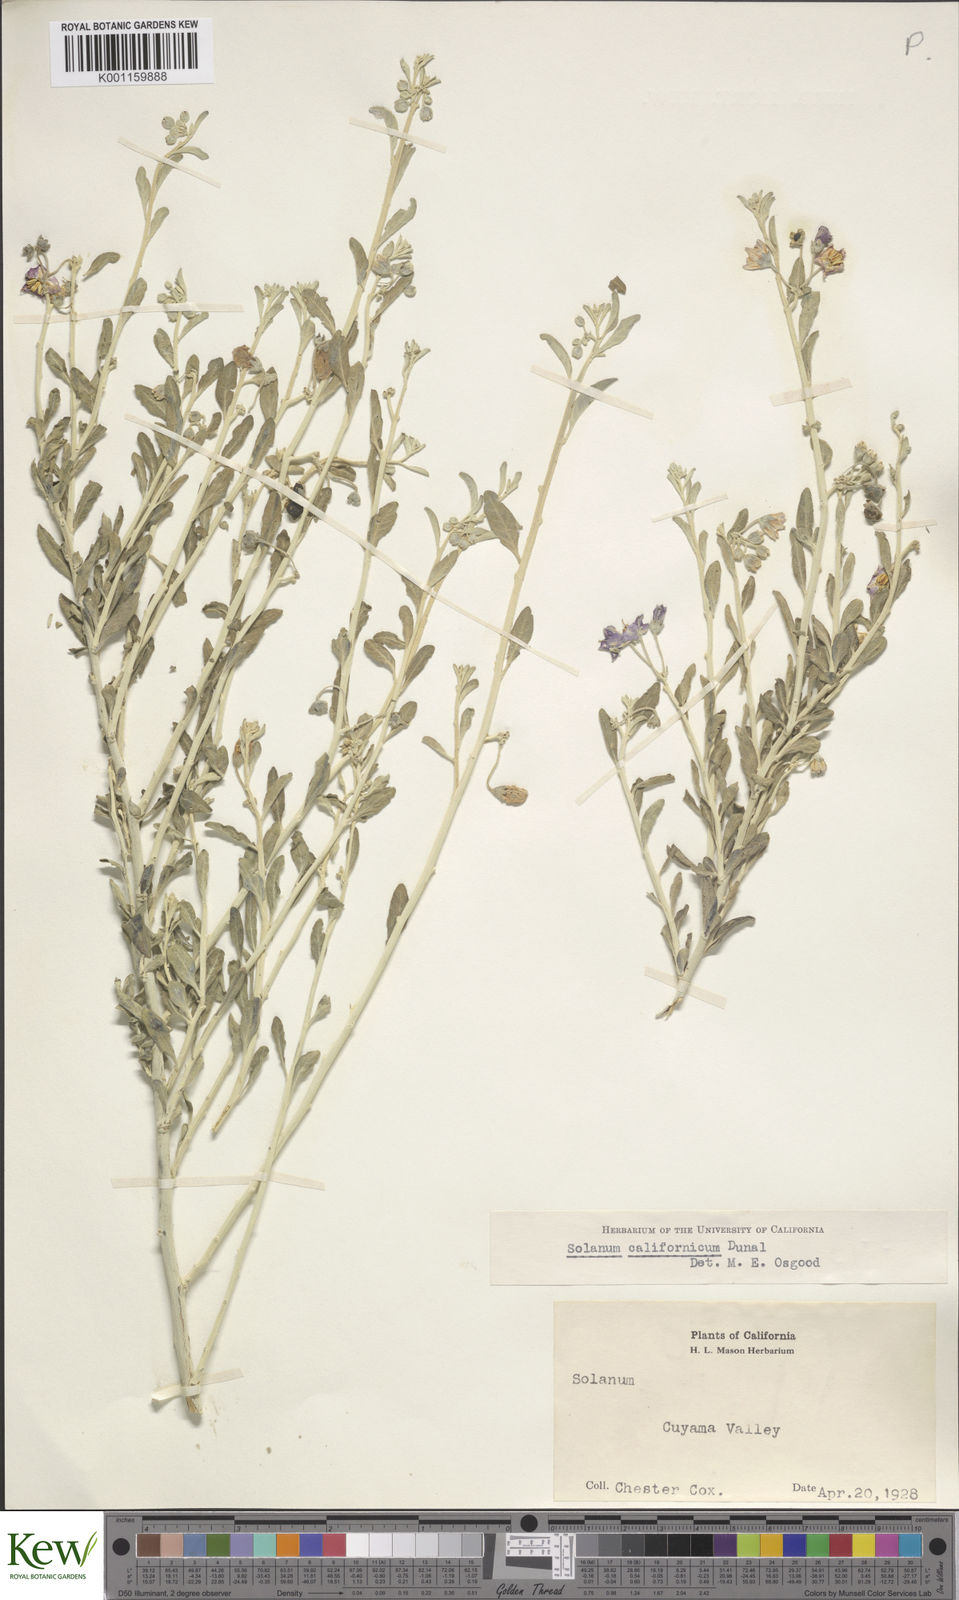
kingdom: Plantae
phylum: Tracheophyta
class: Magnoliopsida
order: Solanales
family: Solanaceae
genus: Solanum
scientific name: Solanum umbelliferum
